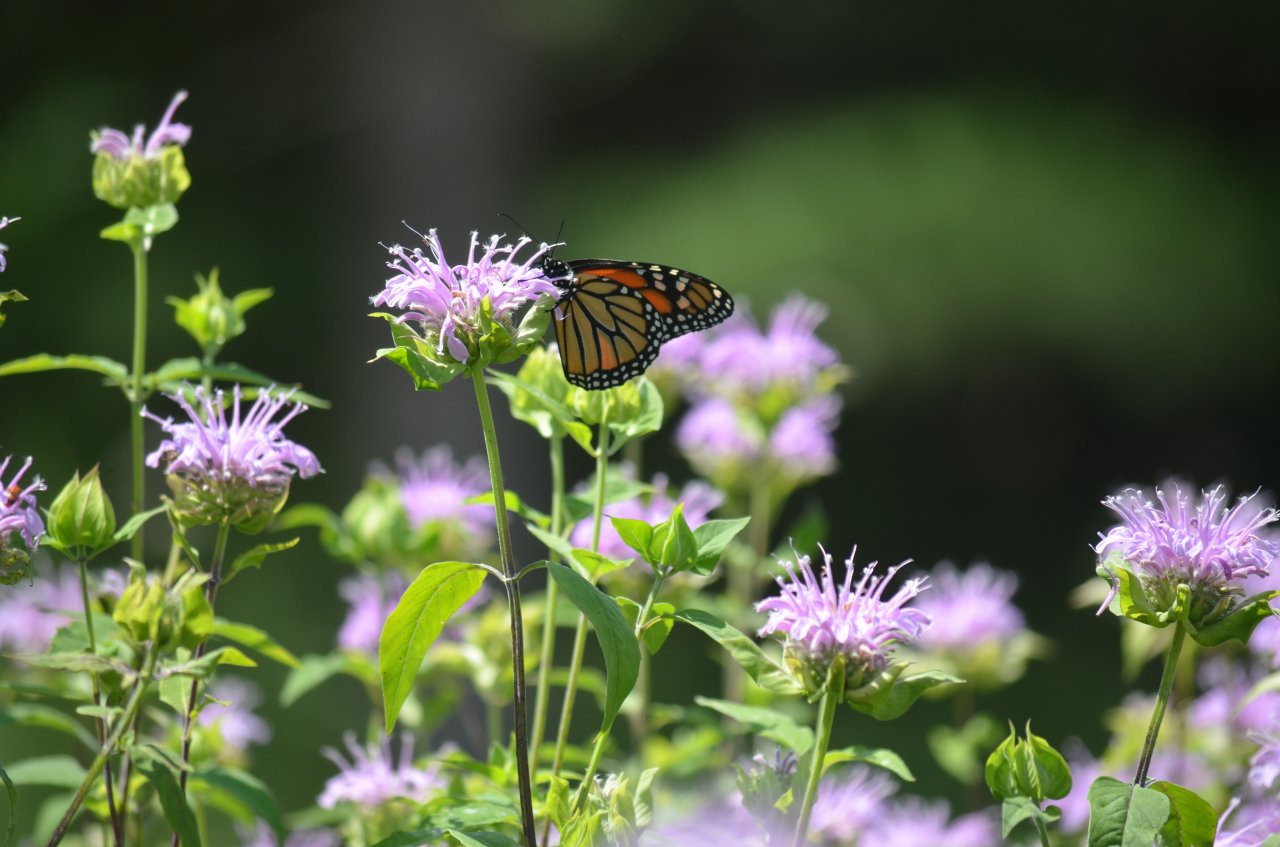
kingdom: Animalia
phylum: Arthropoda
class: Insecta
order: Lepidoptera
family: Nymphalidae
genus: Danaus
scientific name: Danaus plexippus
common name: Monarch
